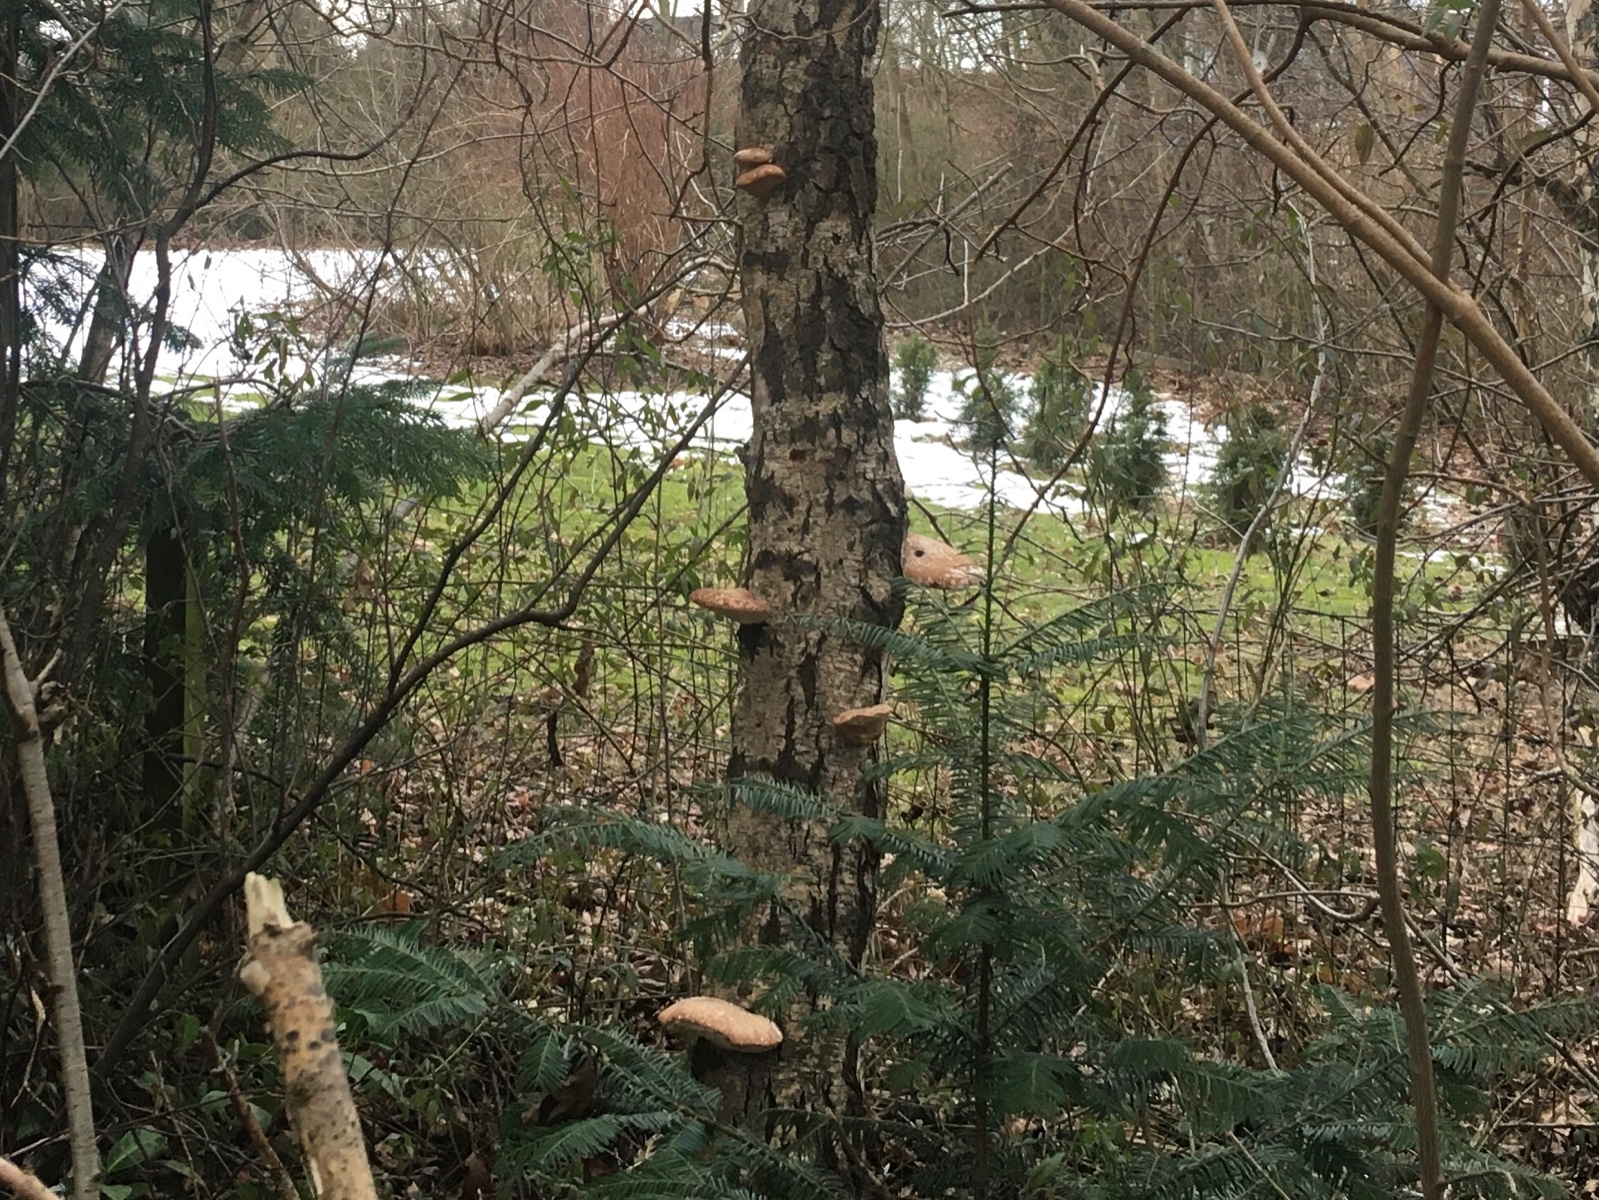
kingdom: Fungi
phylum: Basidiomycota
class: Agaricomycetes
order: Polyporales
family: Fomitopsidaceae
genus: Fomitopsis
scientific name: Fomitopsis betulina
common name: birkeporesvamp
